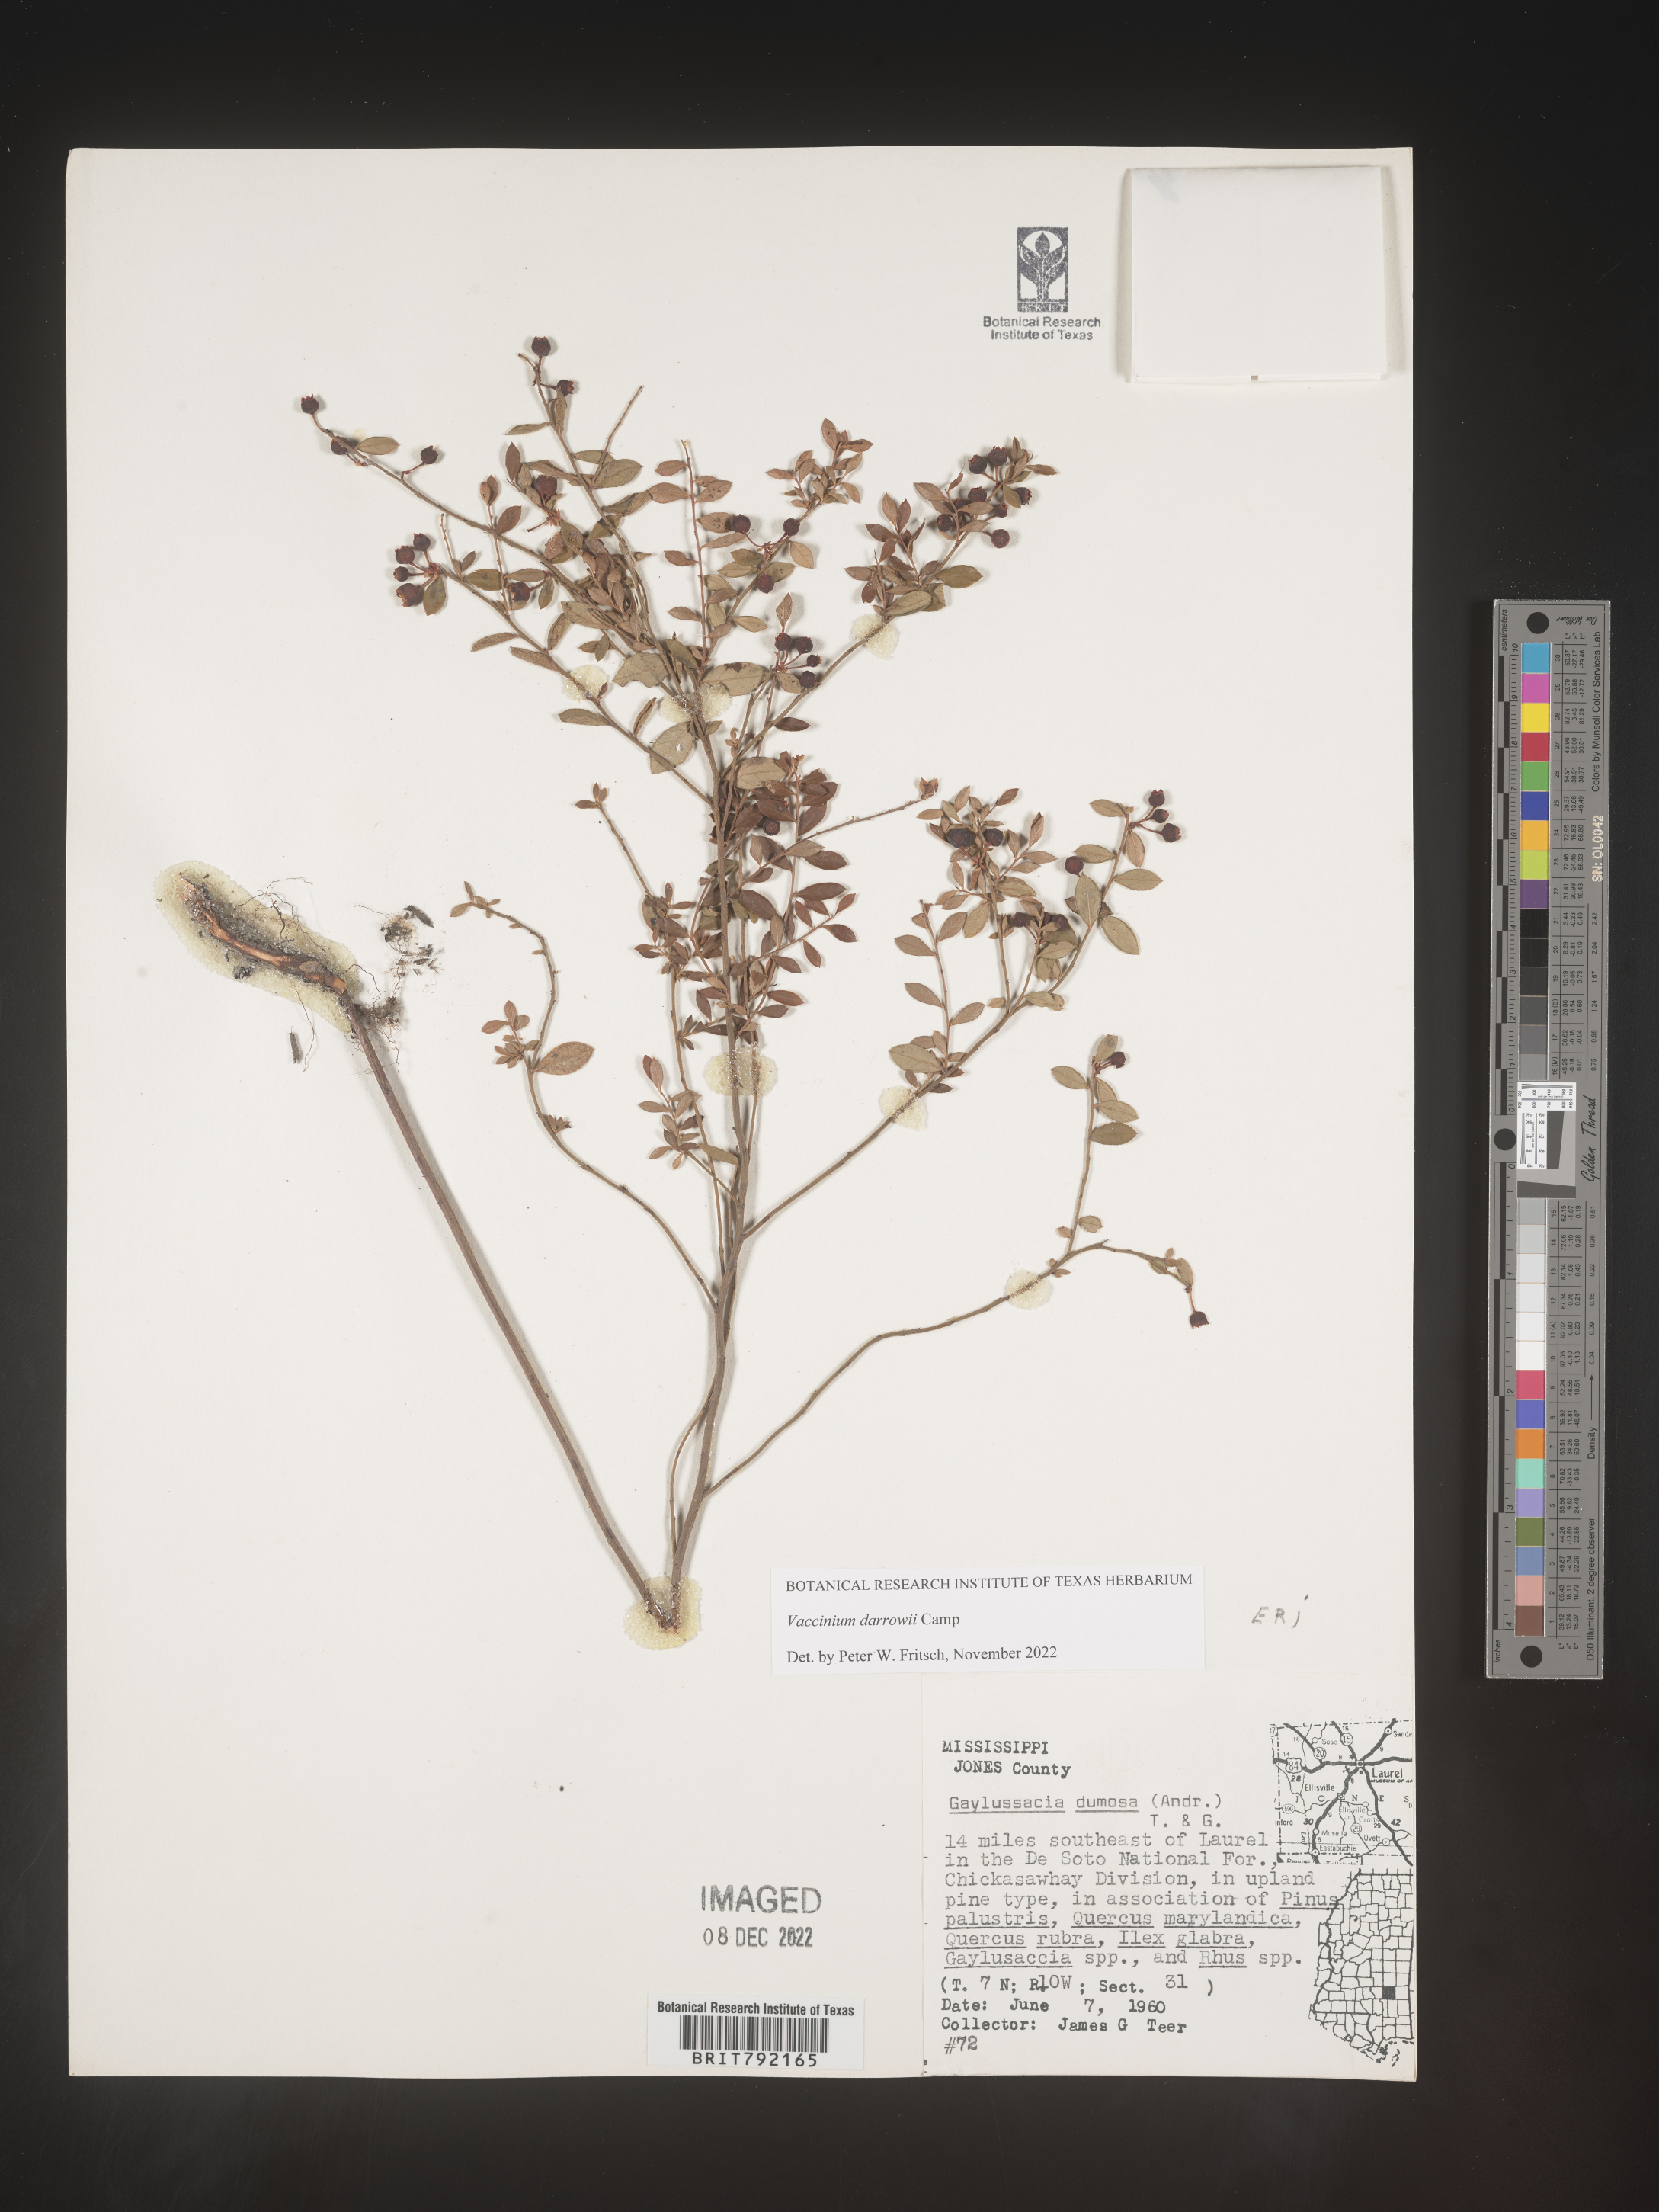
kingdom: Plantae
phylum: Tracheophyta
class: Magnoliopsida
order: Ericales
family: Ericaceae
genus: Vaccinium
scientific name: Vaccinium darrowii
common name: Darrow's blueberry
